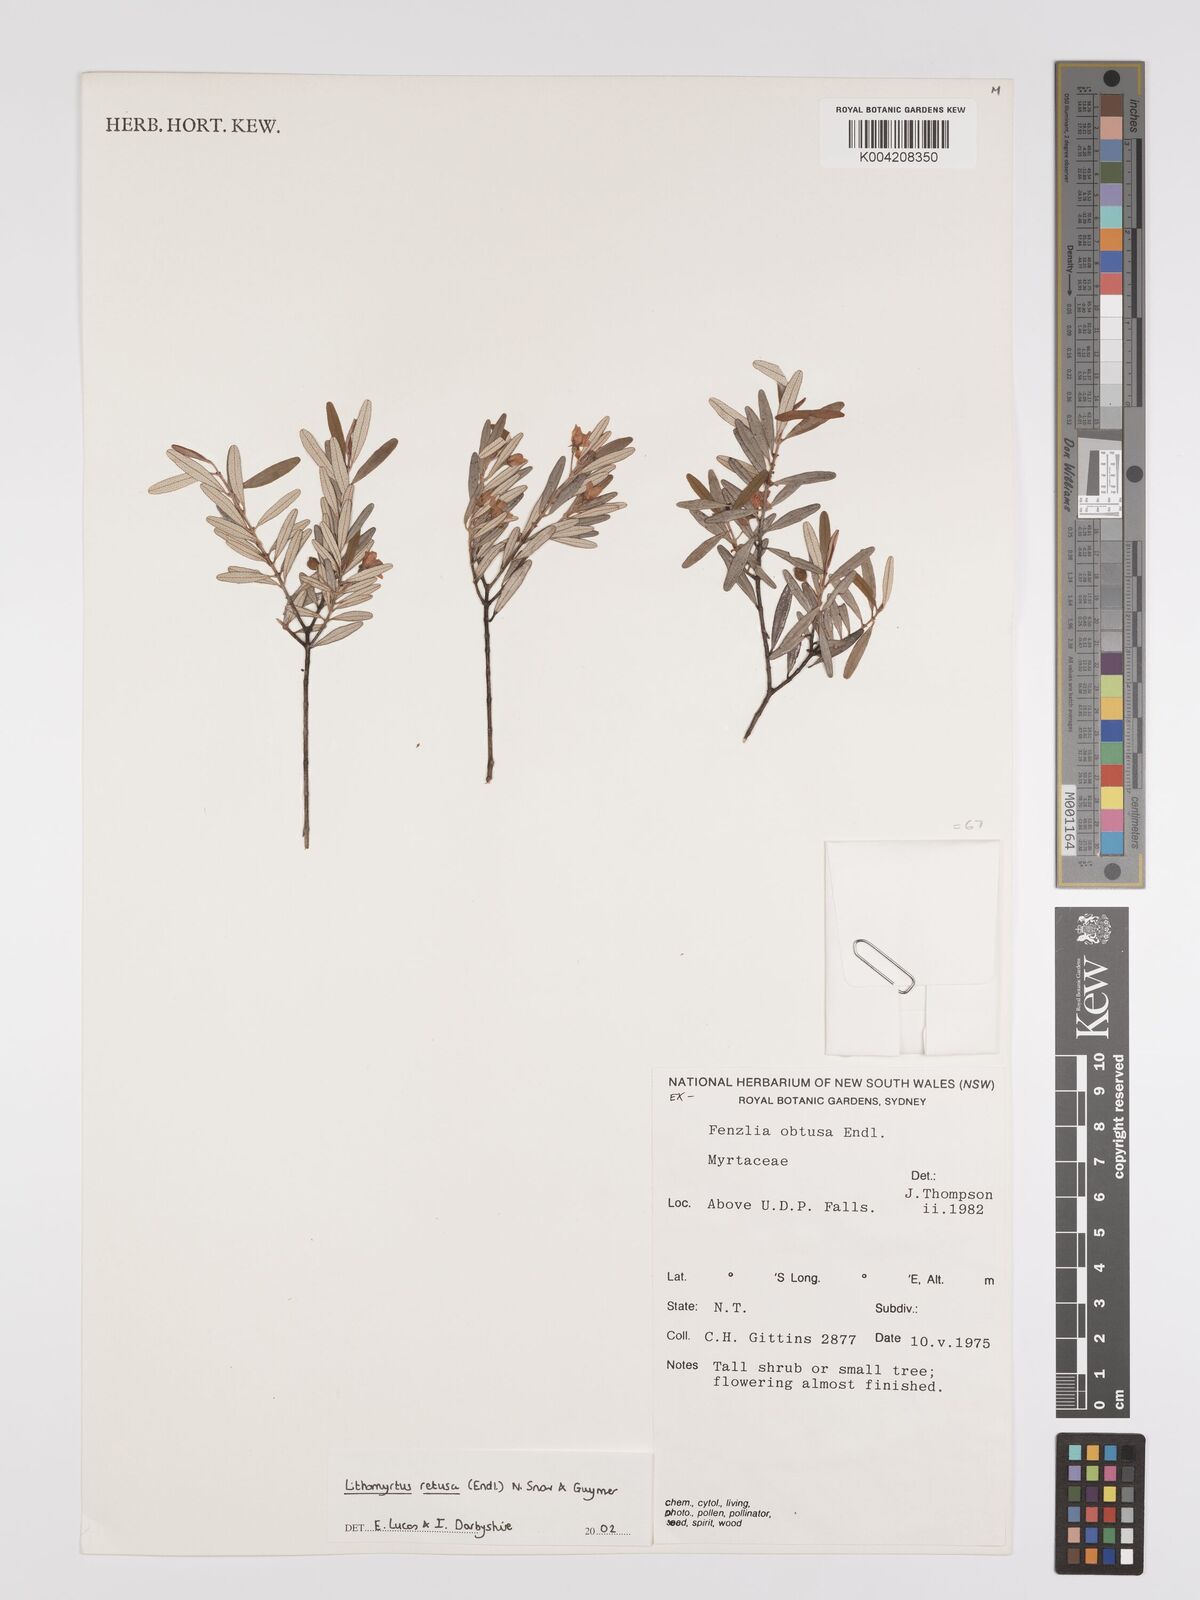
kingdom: Plantae
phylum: Tracheophyta
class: Magnoliopsida
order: Myrtales
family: Myrtaceae
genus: Lithomyrtus
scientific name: Lithomyrtus retusa
